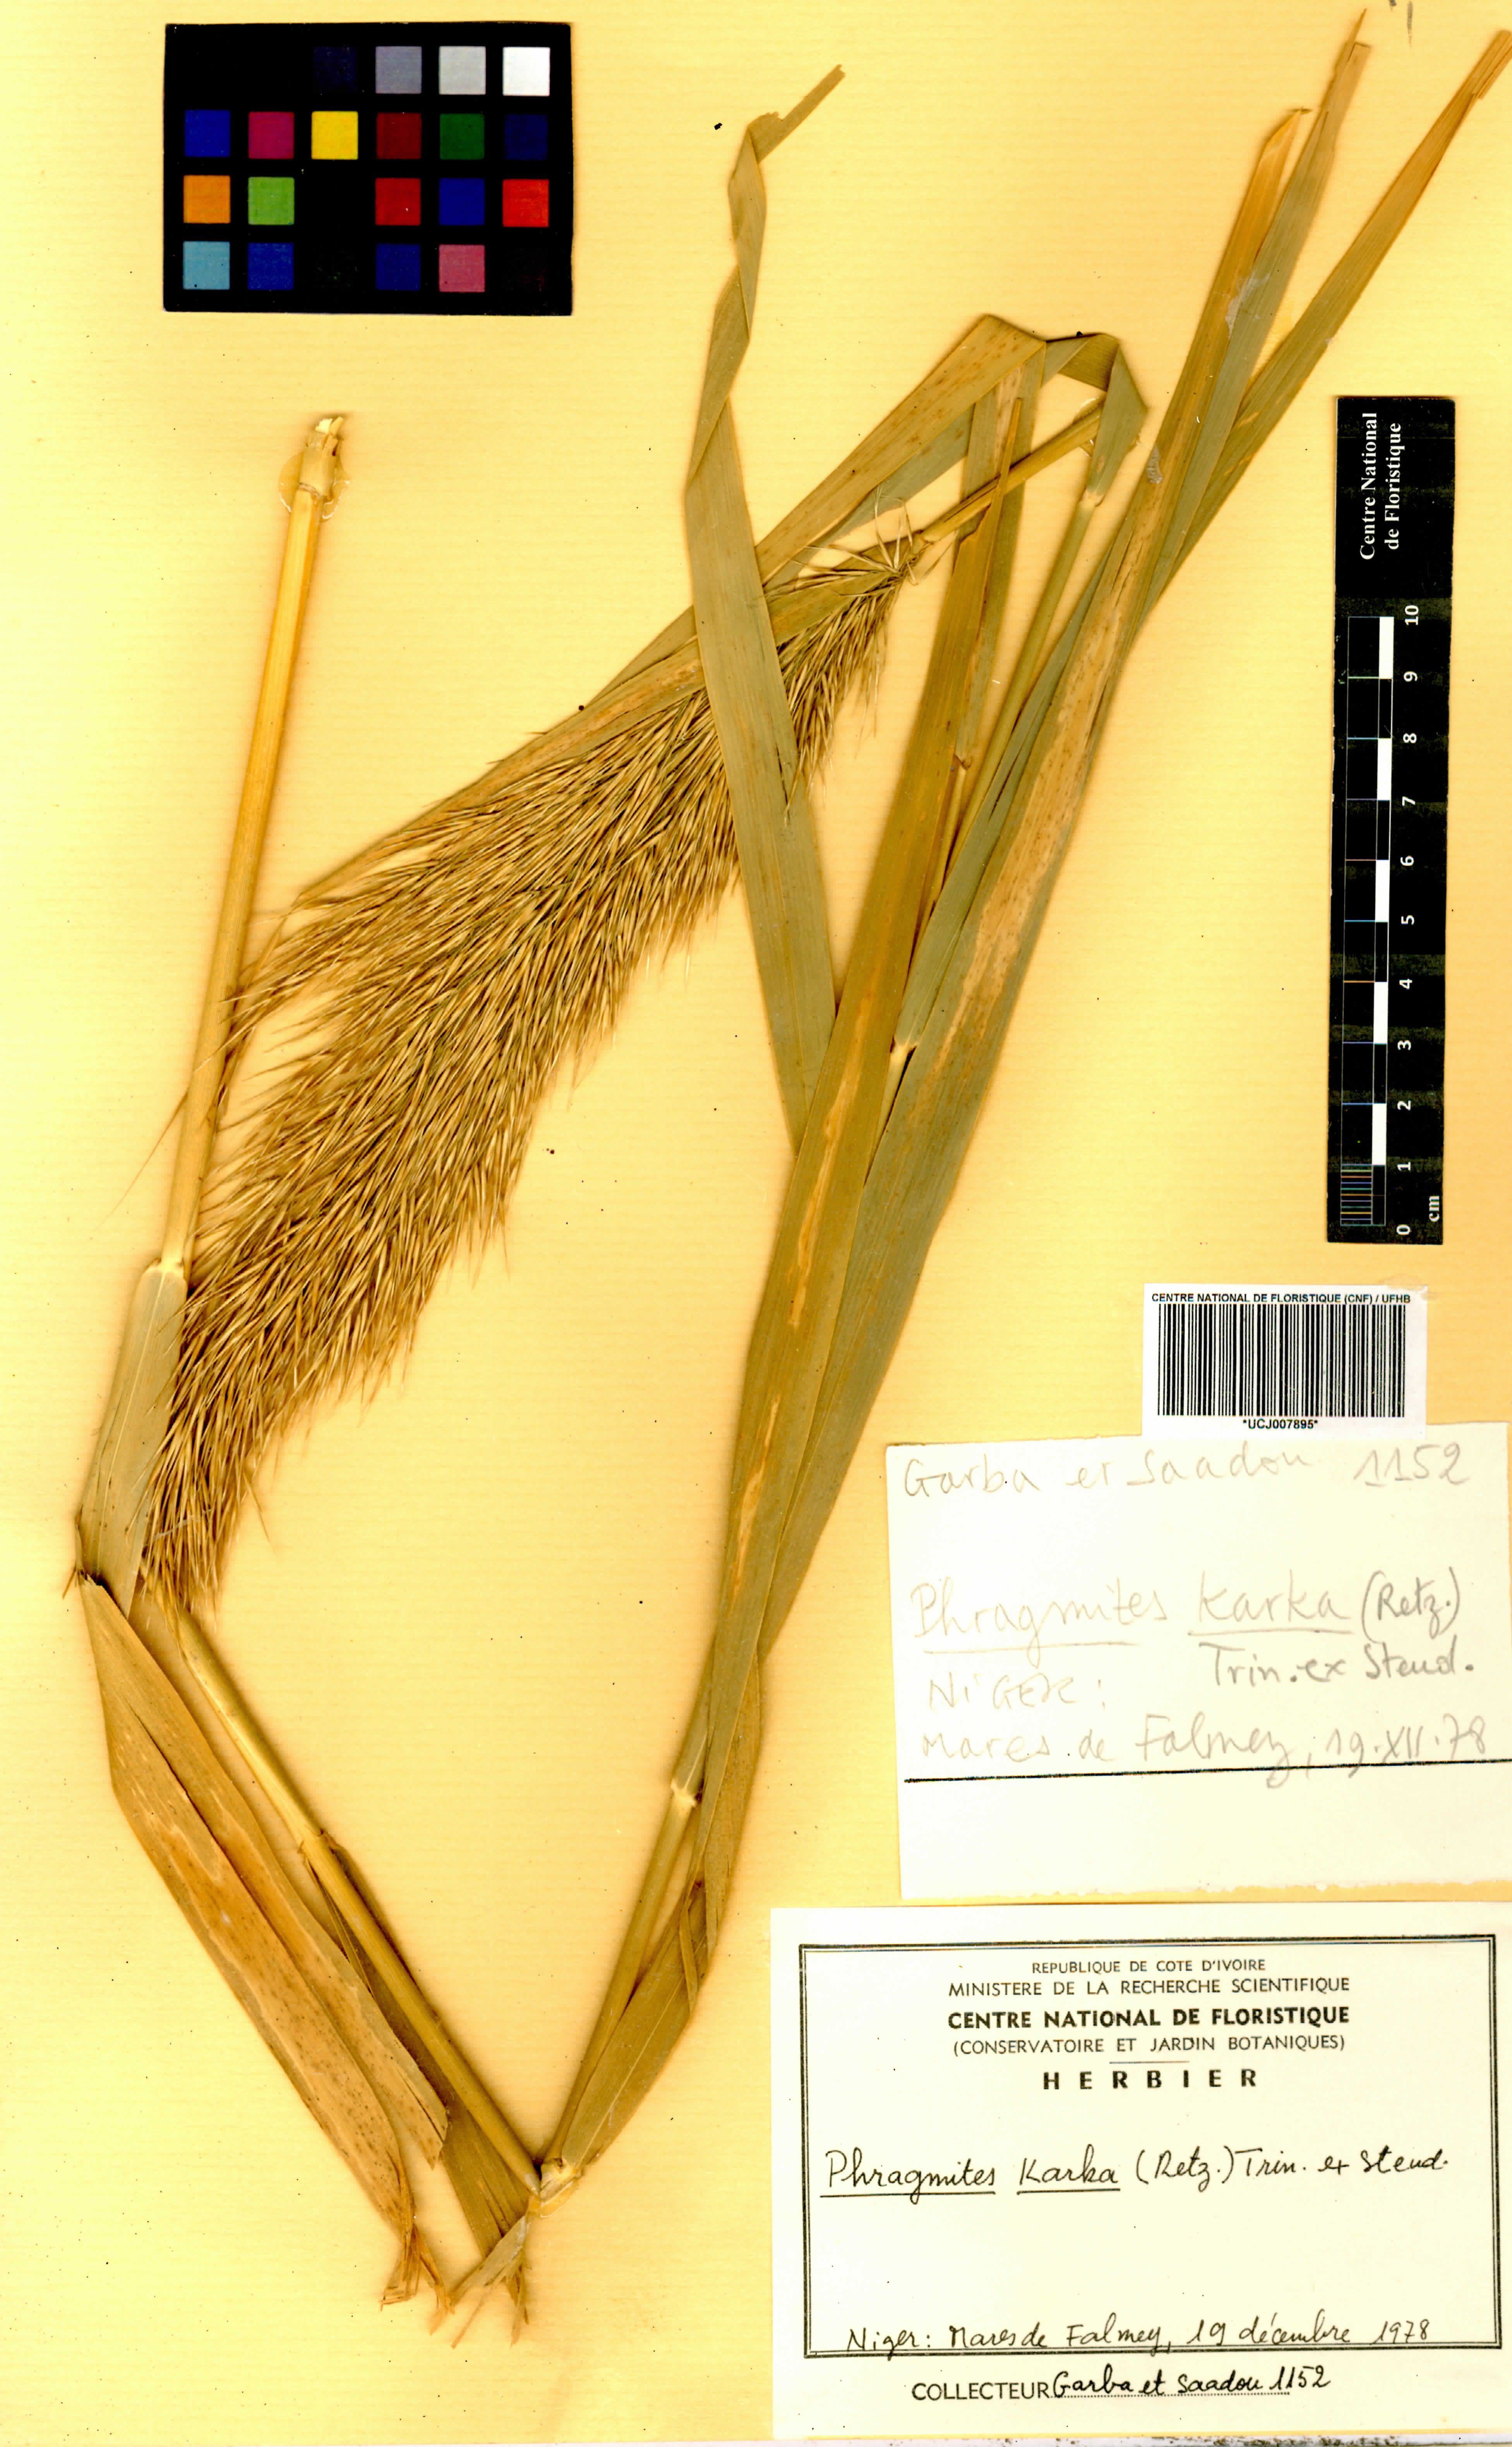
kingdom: Plantae
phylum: Tracheophyta
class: Liliopsida
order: Poales
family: Poaceae
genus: Phragmites
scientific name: Phragmites karka
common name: Tropical reed
